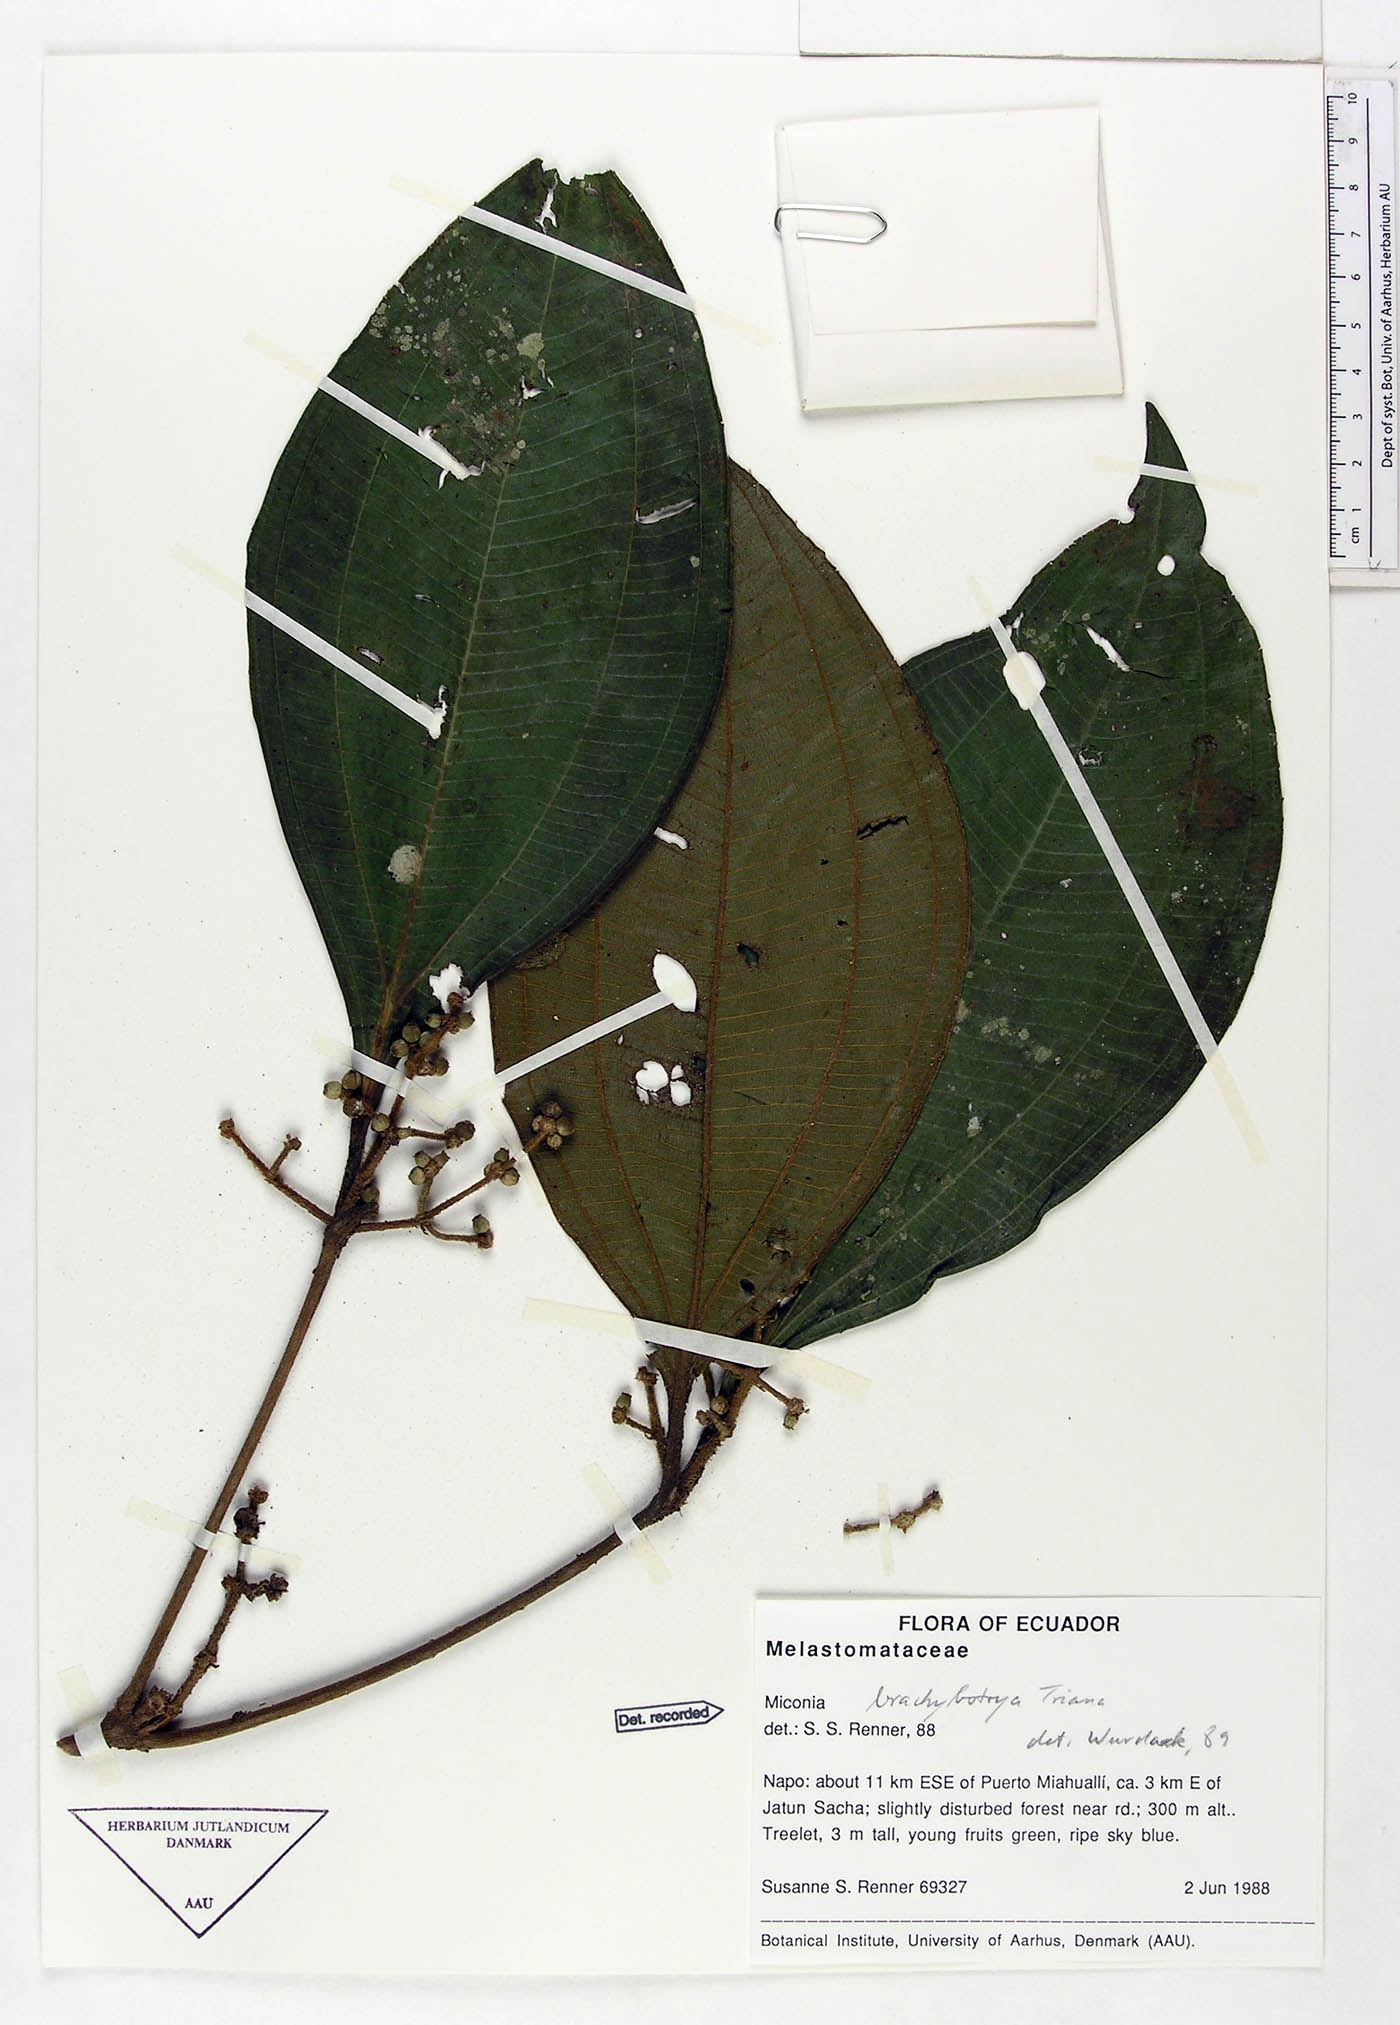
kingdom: Plantae
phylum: Tracheophyta
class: Magnoliopsida
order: Myrtales
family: Melastomataceae
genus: Miconia
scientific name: Miconia brachybotrya
